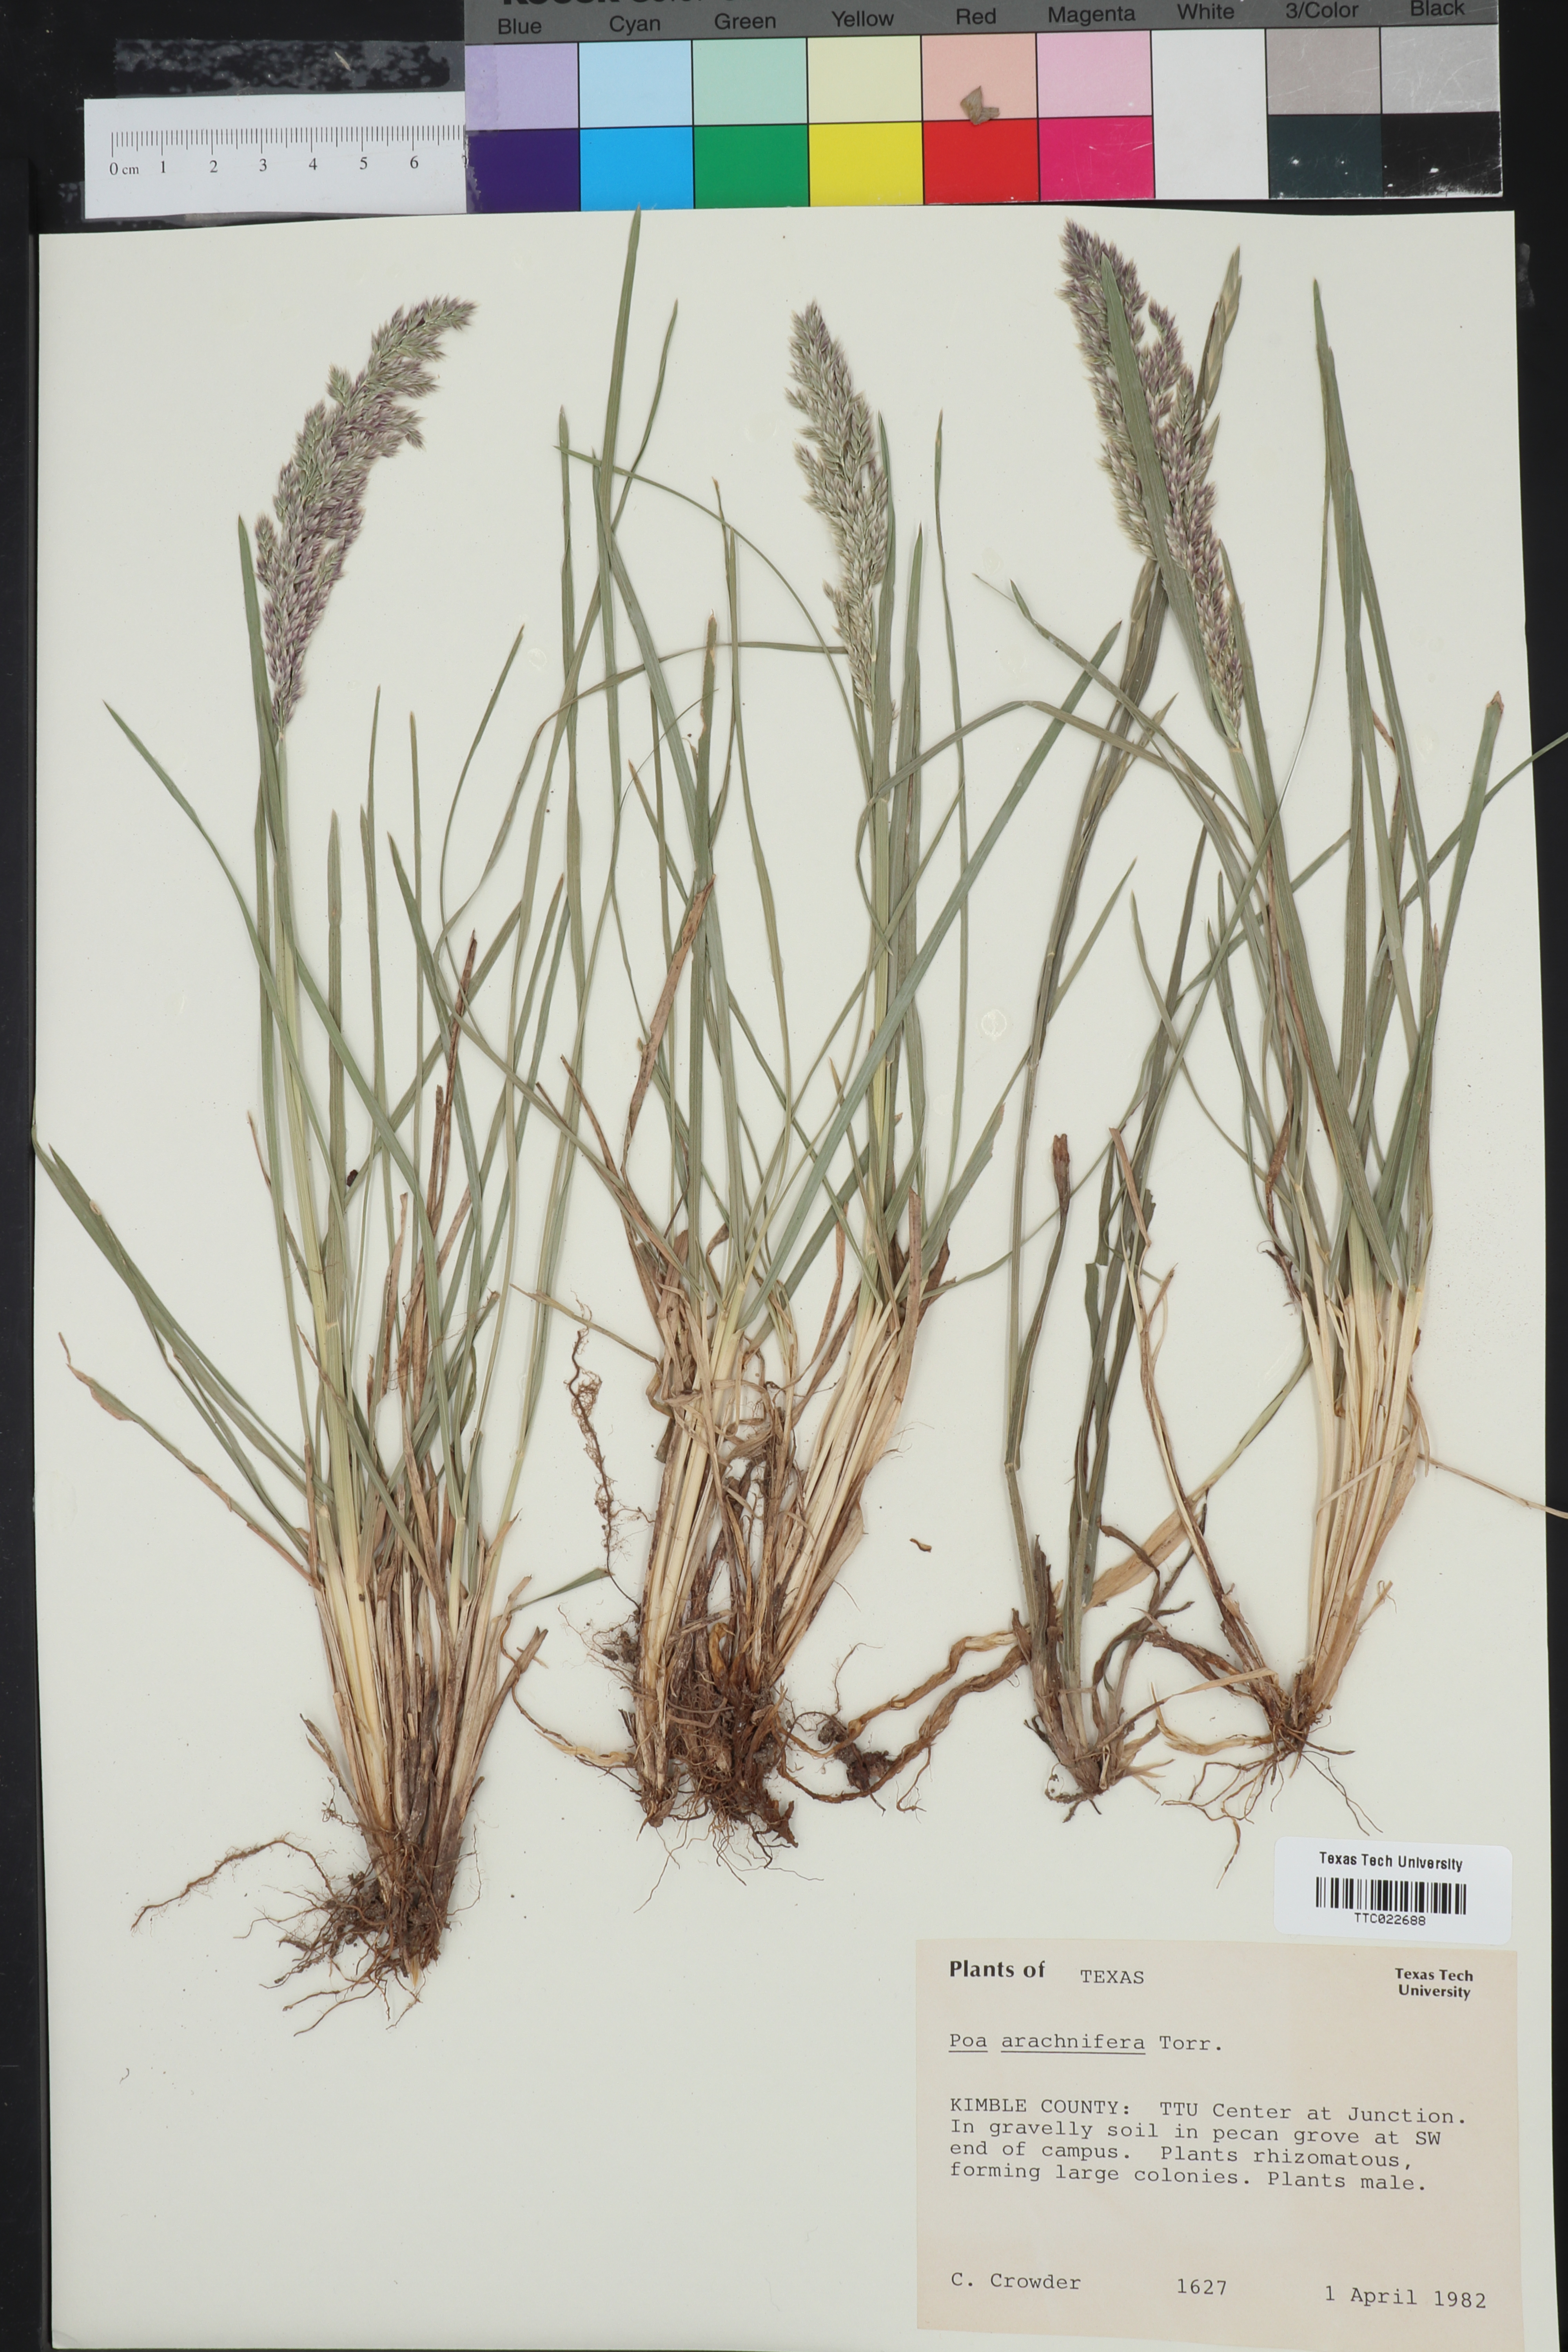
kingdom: Plantae
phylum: Tracheophyta
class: Liliopsida
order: Poales
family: Poaceae
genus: Poa
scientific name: Poa arachnifera
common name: Texas bluegrass
